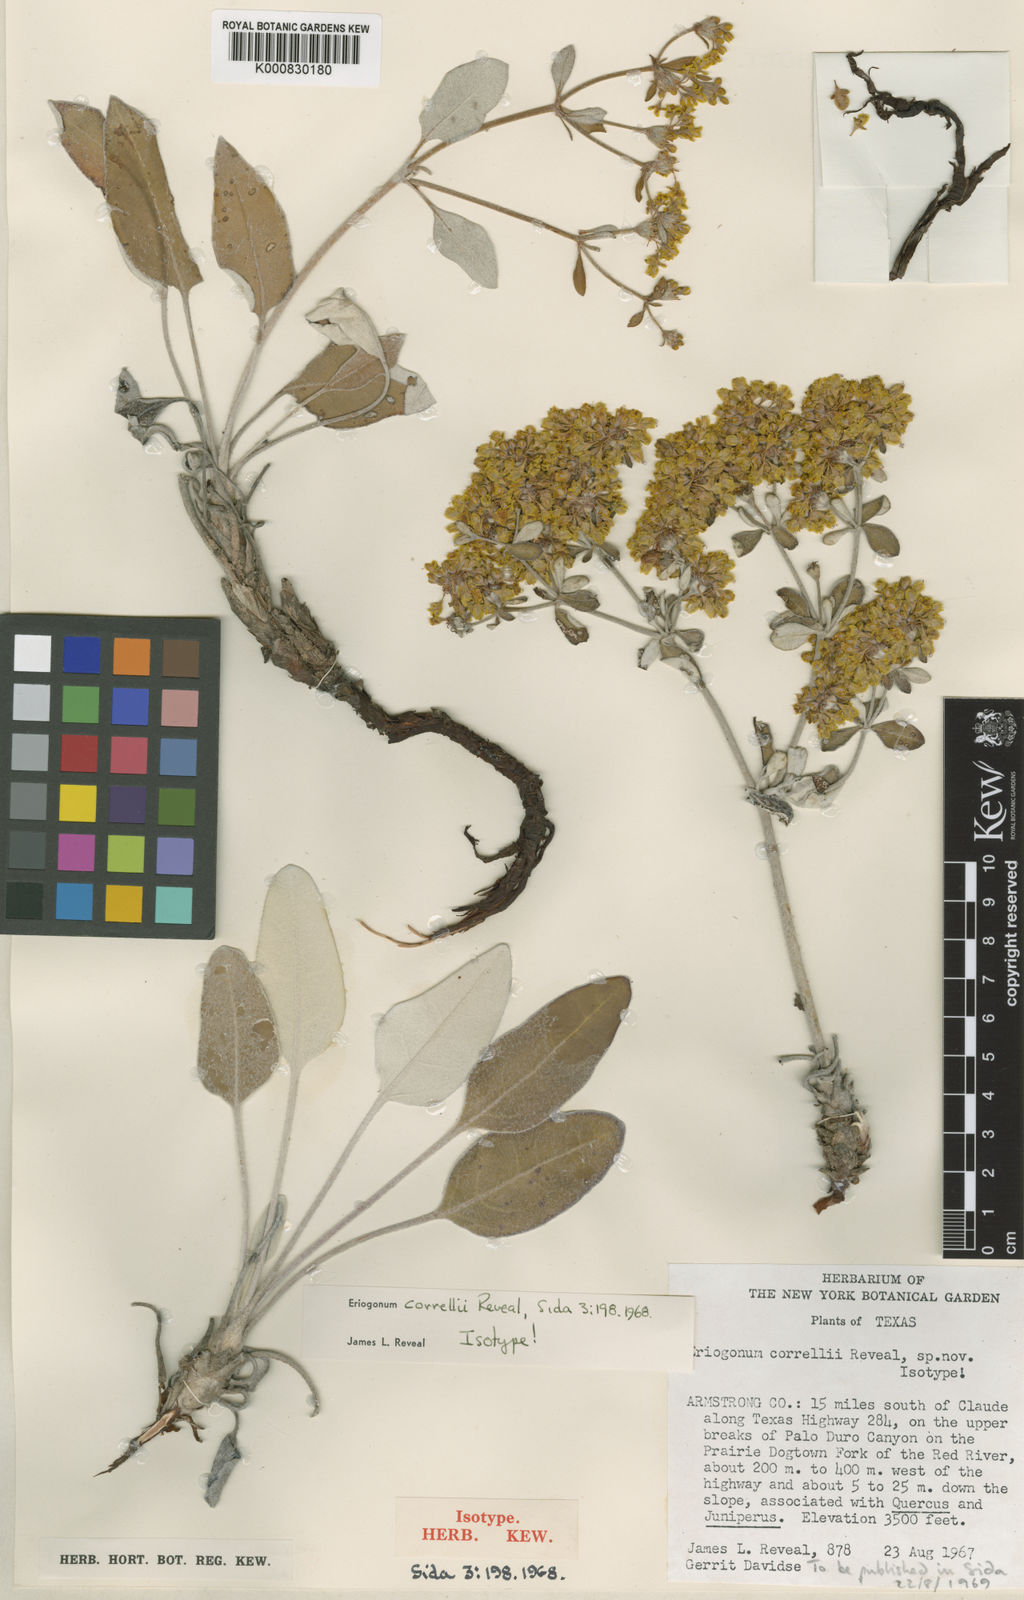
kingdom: Plantae
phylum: Tracheophyta
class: Magnoliopsida
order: Caryophyllales
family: Polygonaceae
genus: Eriogonum
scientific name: Eriogonum correllii
